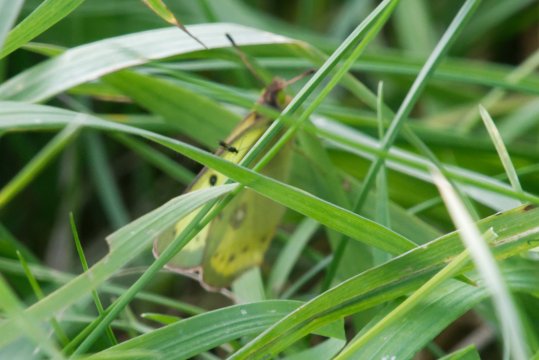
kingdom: Animalia
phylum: Arthropoda
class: Insecta
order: Lepidoptera
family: Pieridae
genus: Colias
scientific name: Colias philodice
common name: Clouded Sulphur
